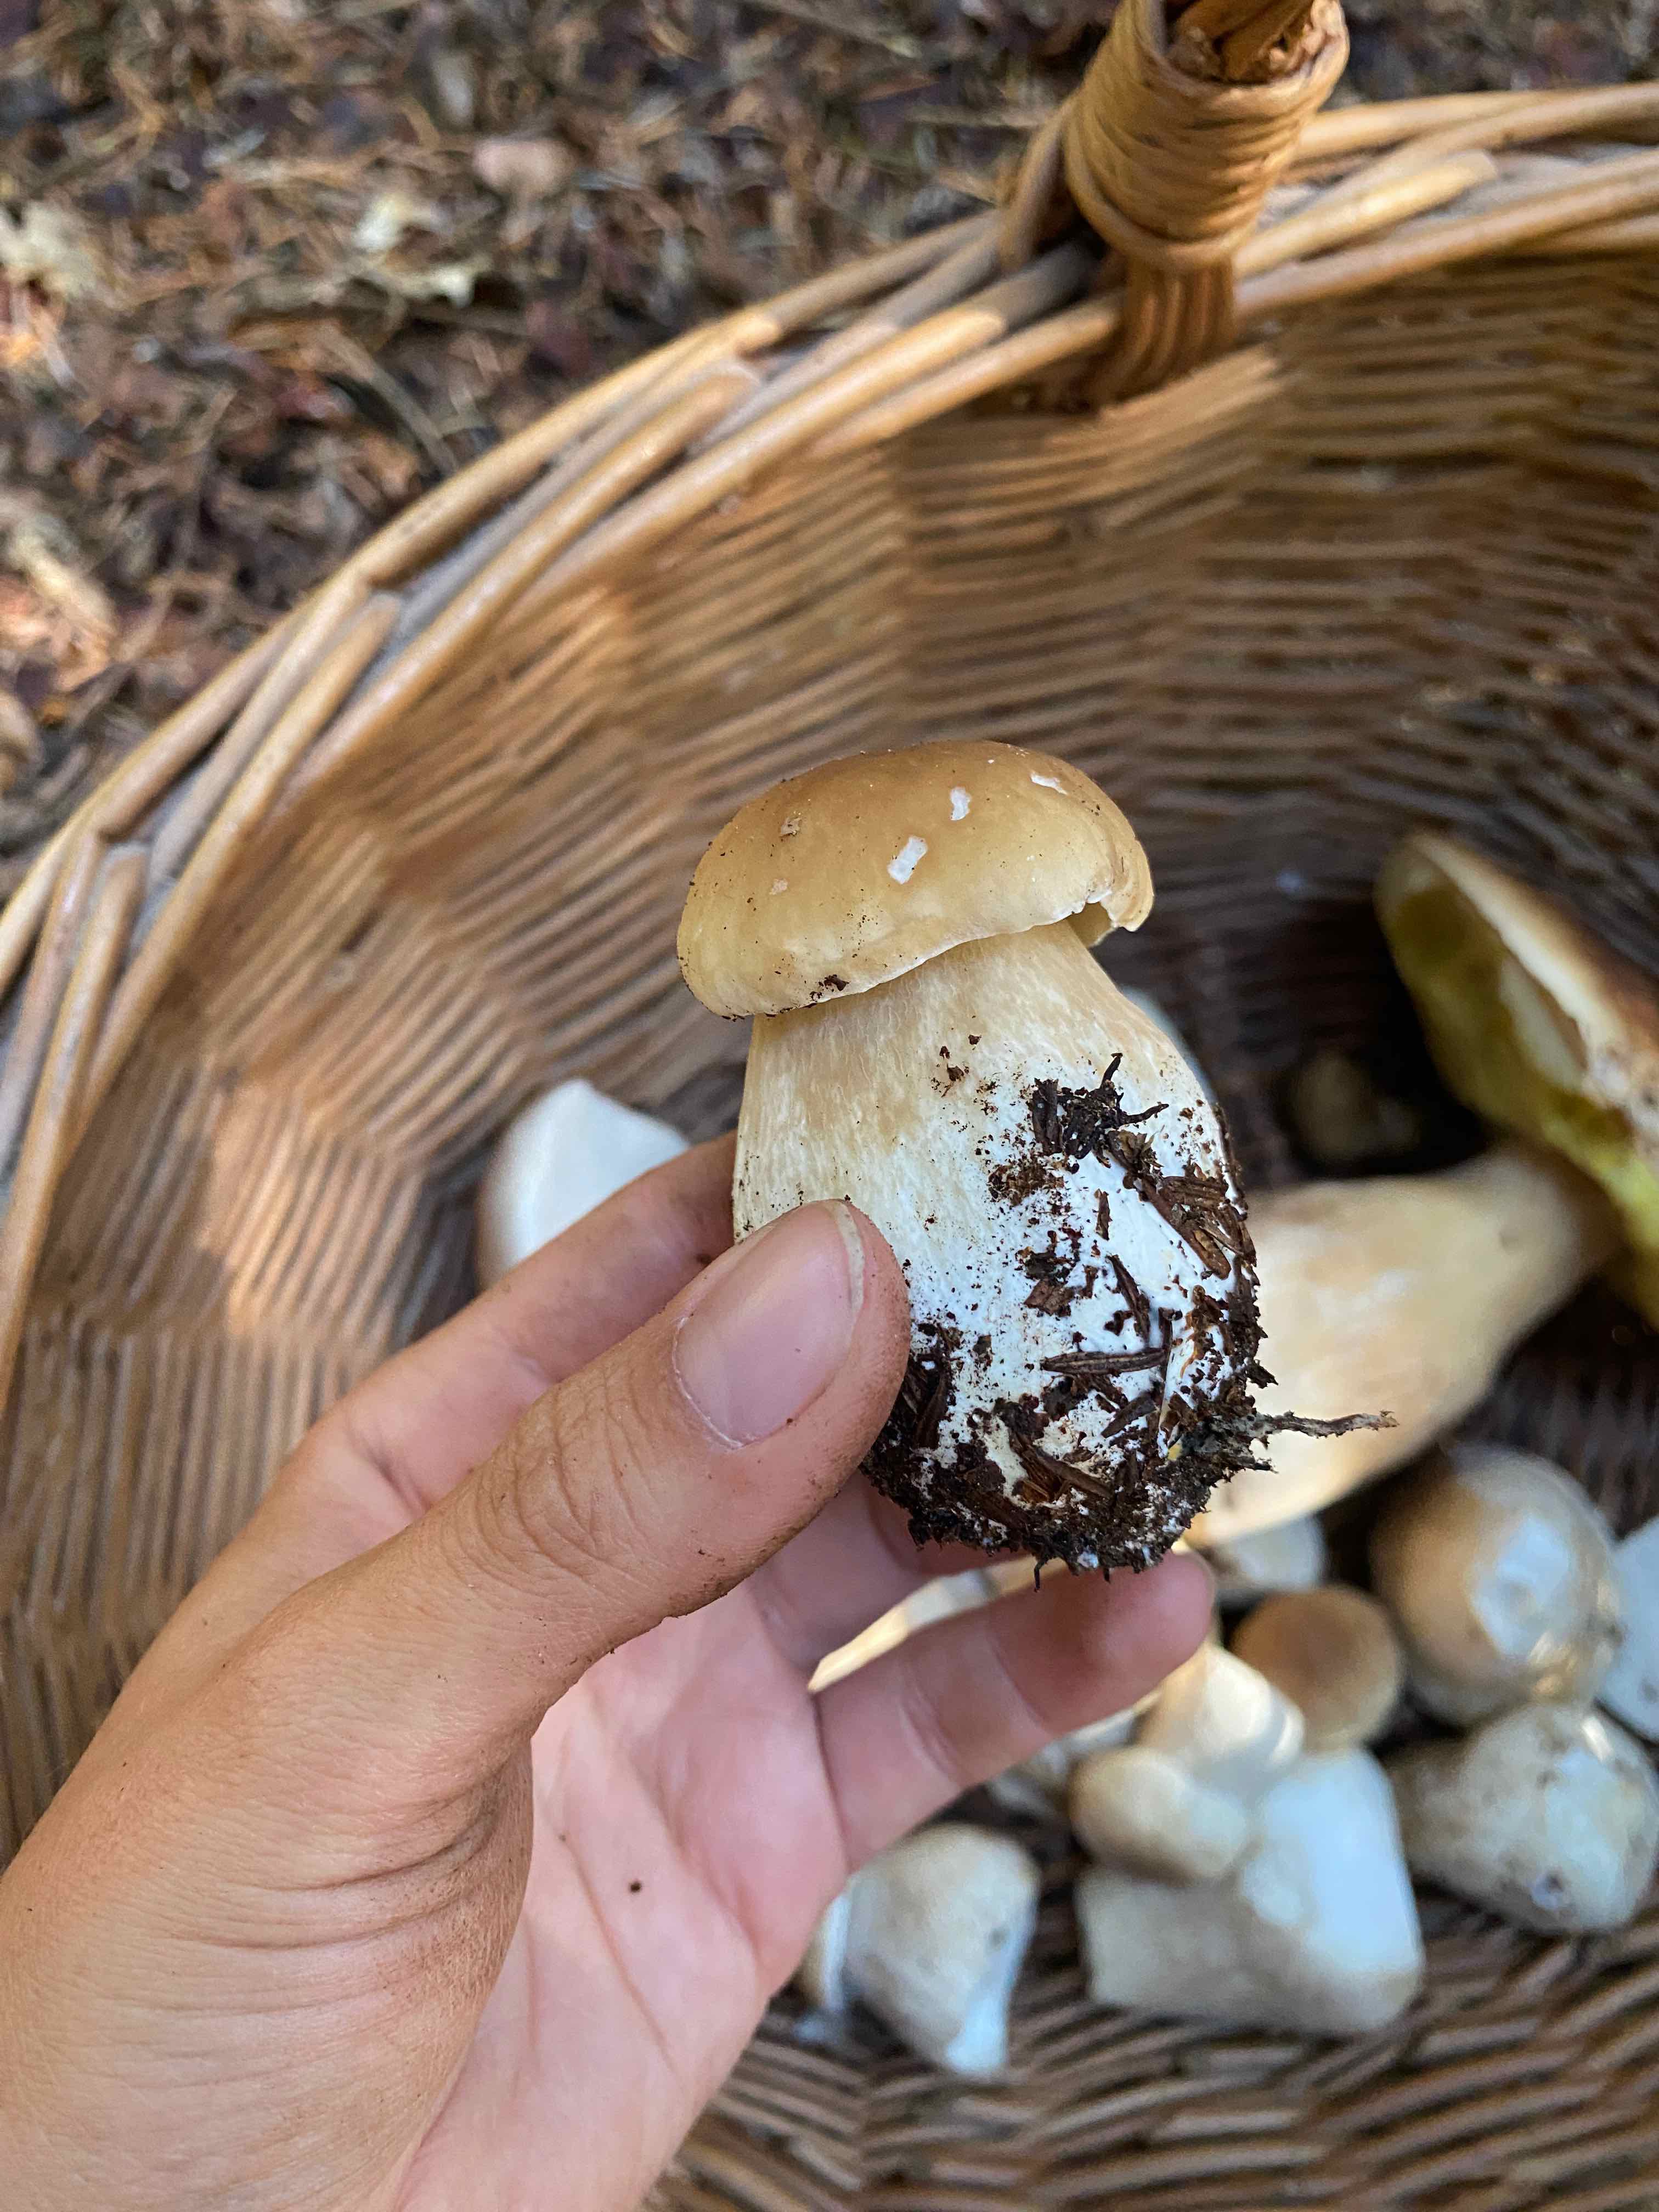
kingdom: Fungi
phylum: Basidiomycota
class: Agaricomycetes
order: Boletales
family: Boletaceae
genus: Boletus
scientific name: Boletus edulis
